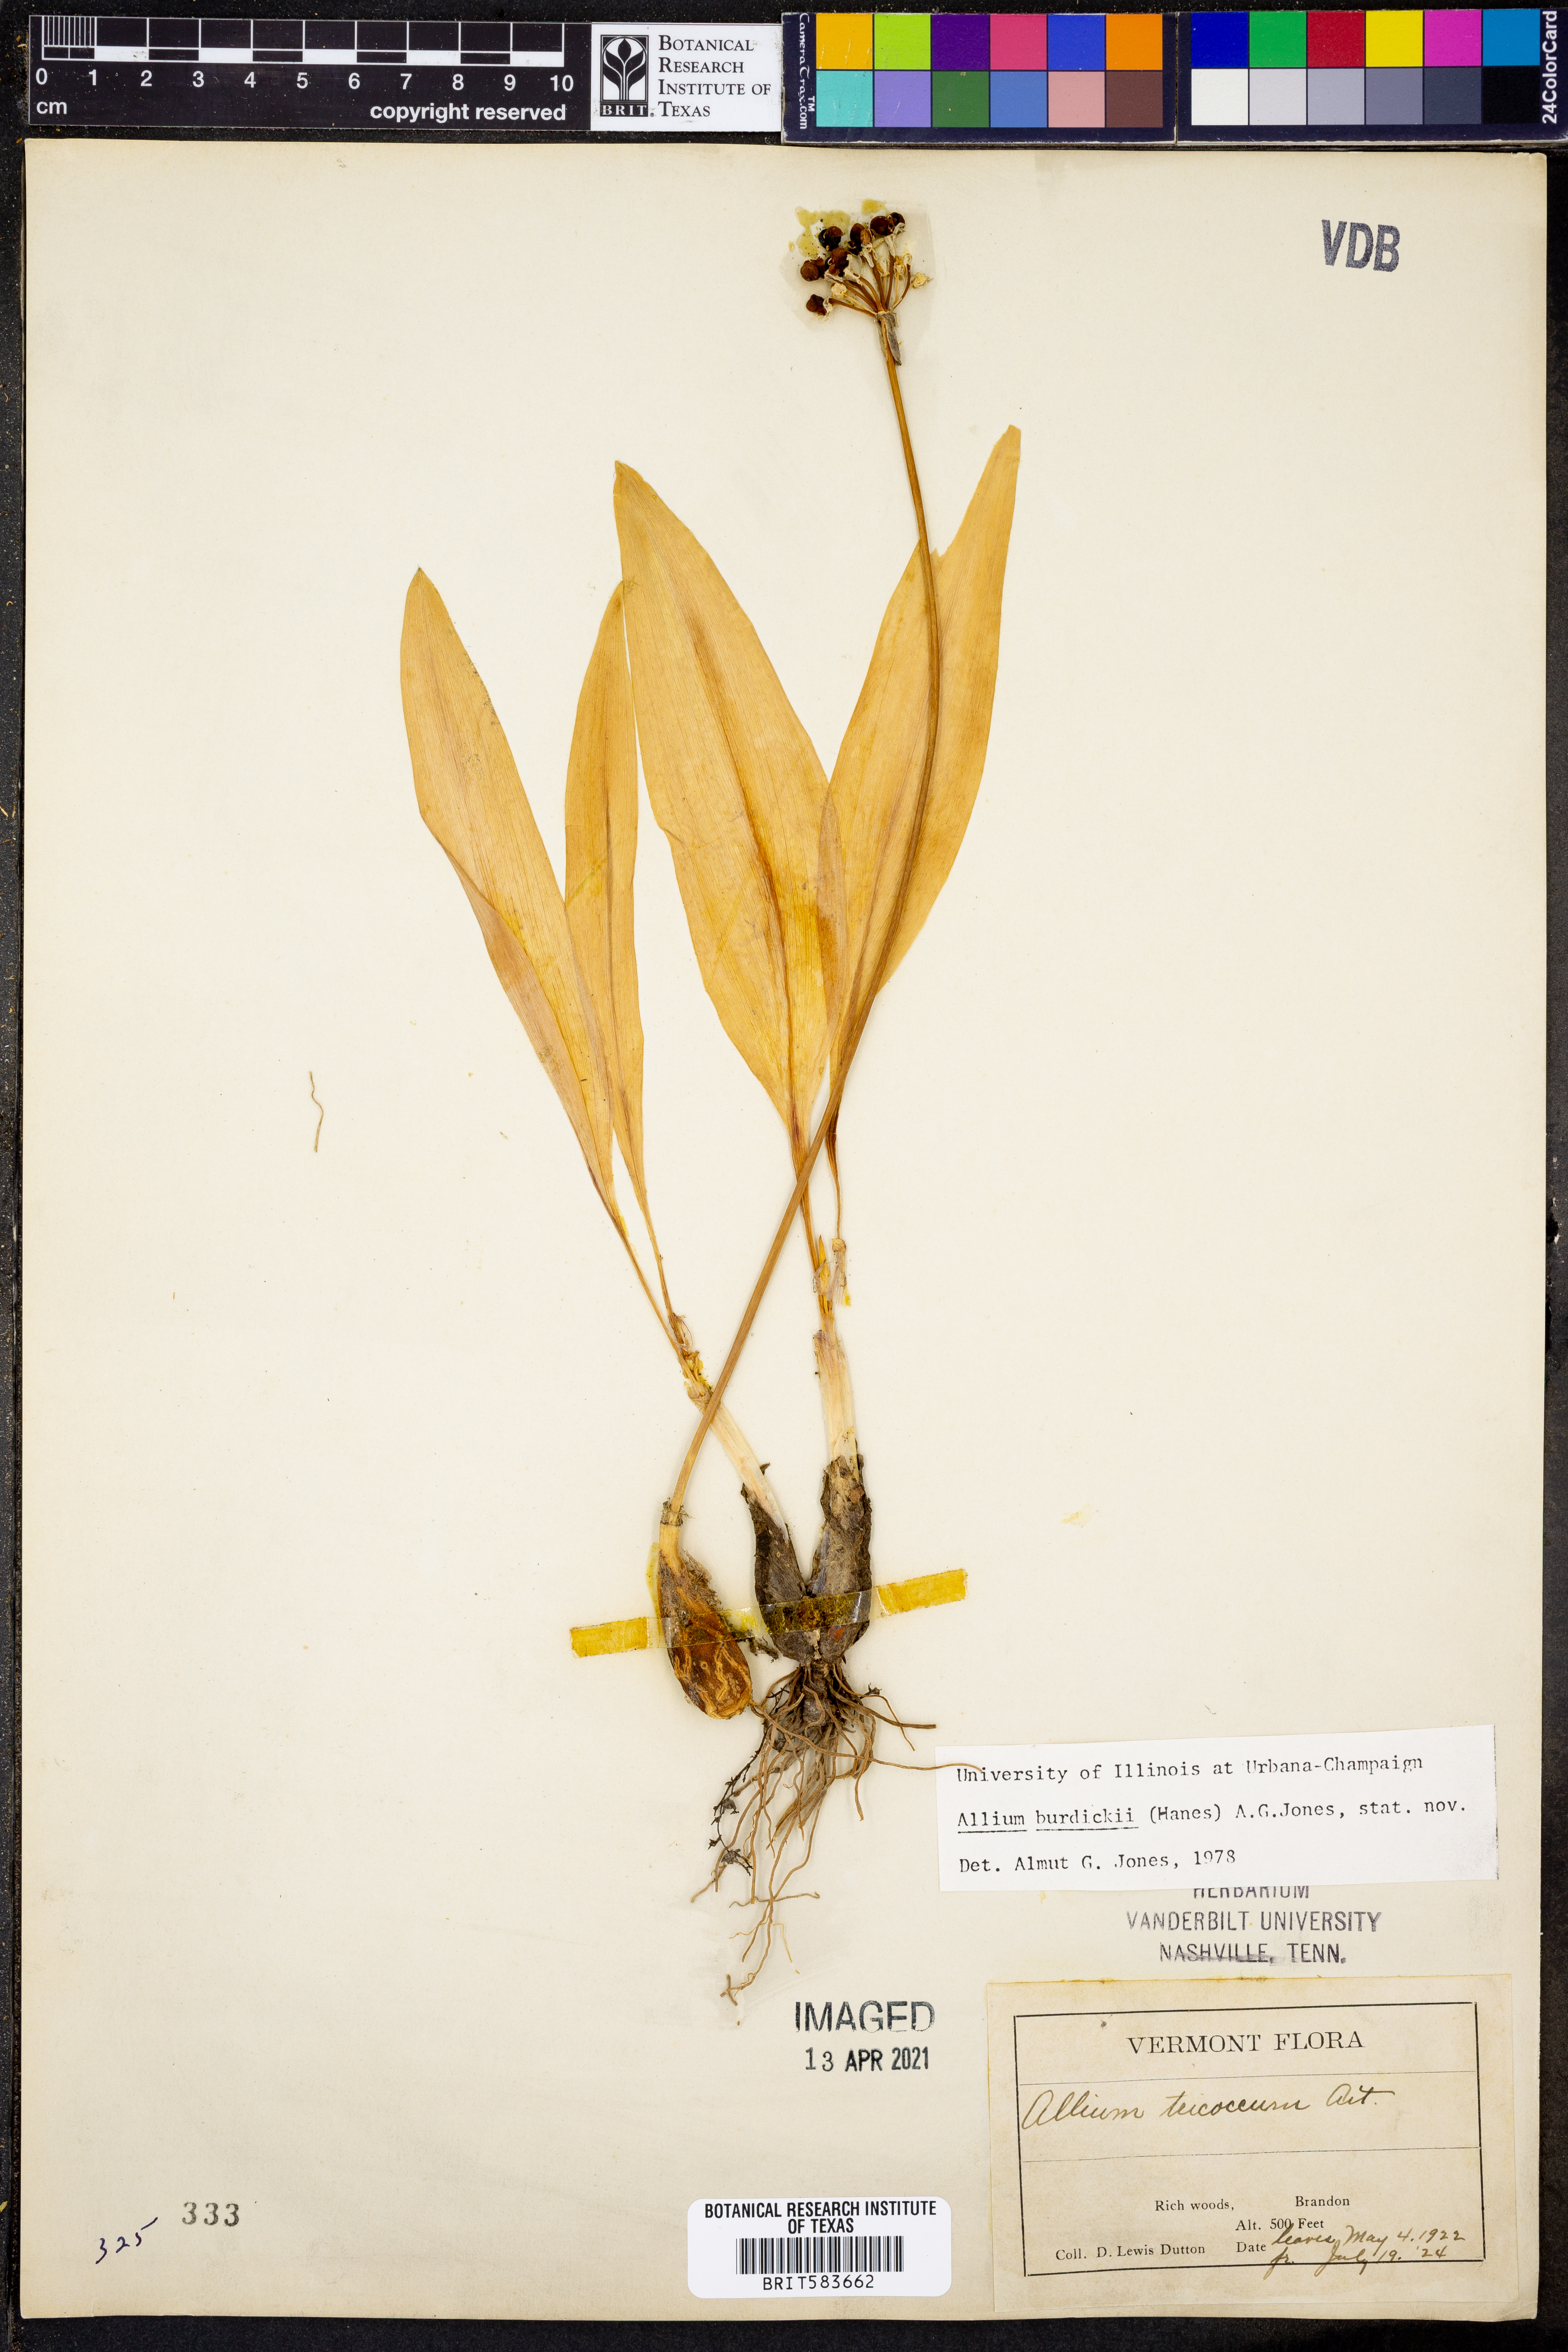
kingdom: Plantae
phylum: Tracheophyta
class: Liliopsida
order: Asparagales
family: Amaryllidaceae
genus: Allium
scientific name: Allium tricoccum
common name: Ramp
